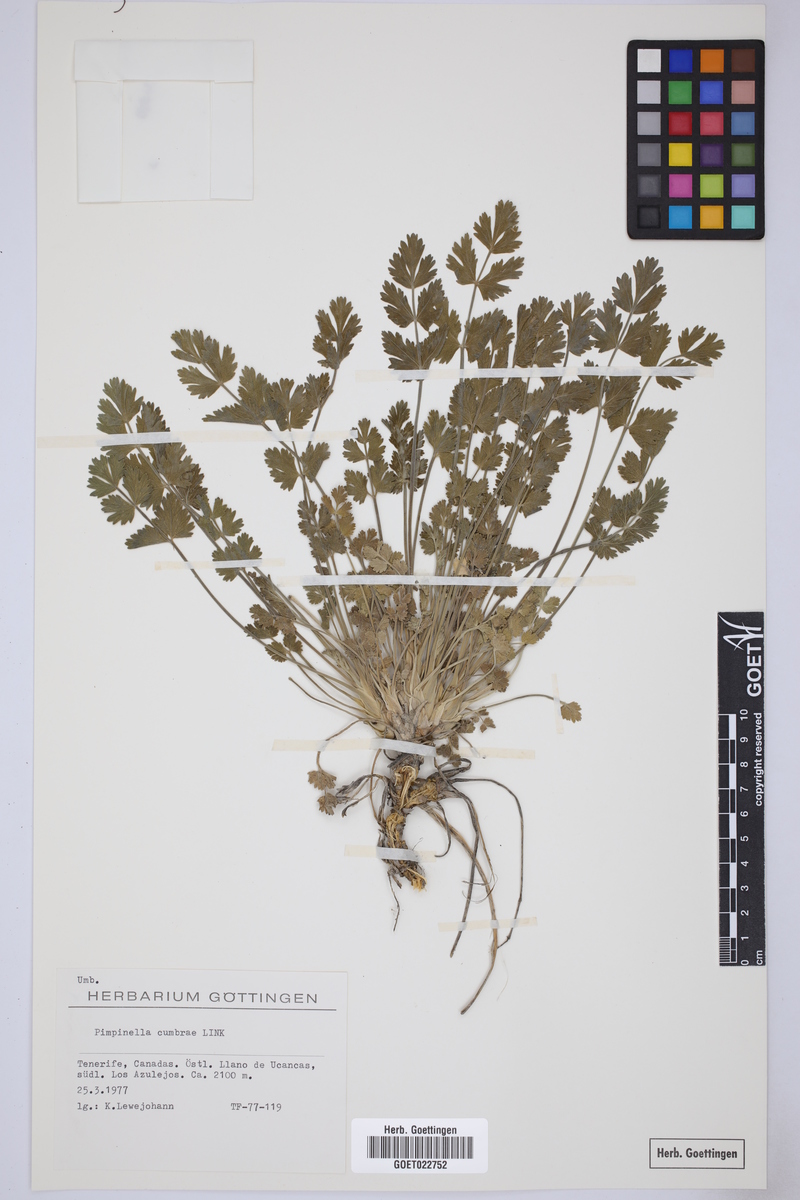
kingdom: Plantae
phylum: Tracheophyta
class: Magnoliopsida
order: Apiales
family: Apiaceae
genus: Pimpinella
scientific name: Pimpinella cumbrae
